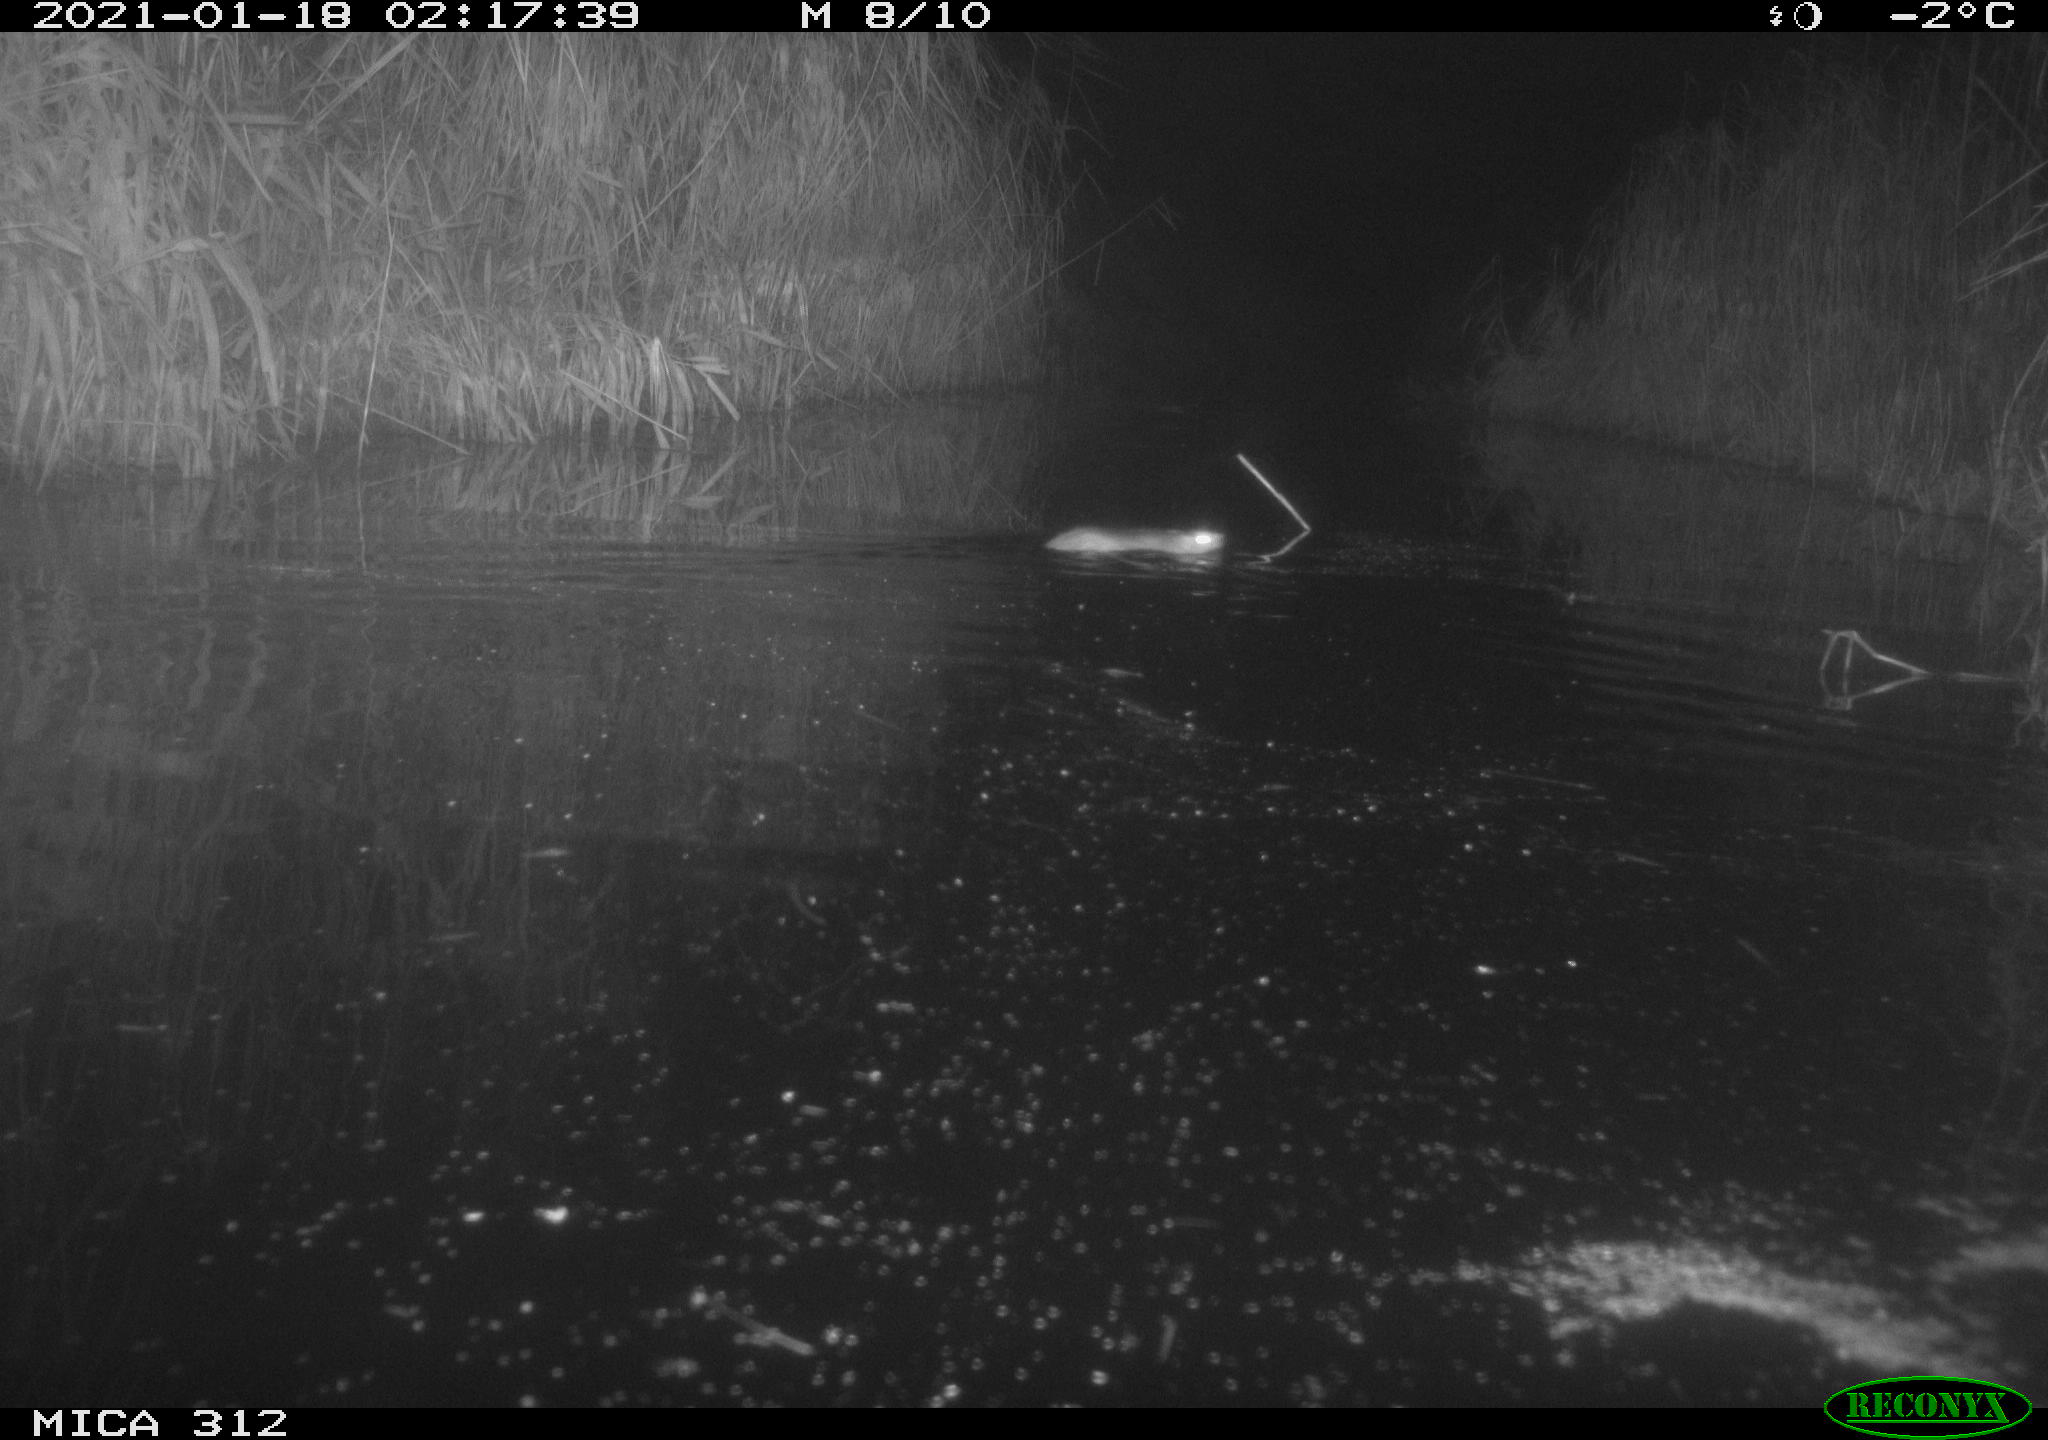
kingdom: Animalia
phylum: Chordata
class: Mammalia
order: Rodentia
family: Muridae
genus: Rattus
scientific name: Rattus norvegicus
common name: Brown rat
